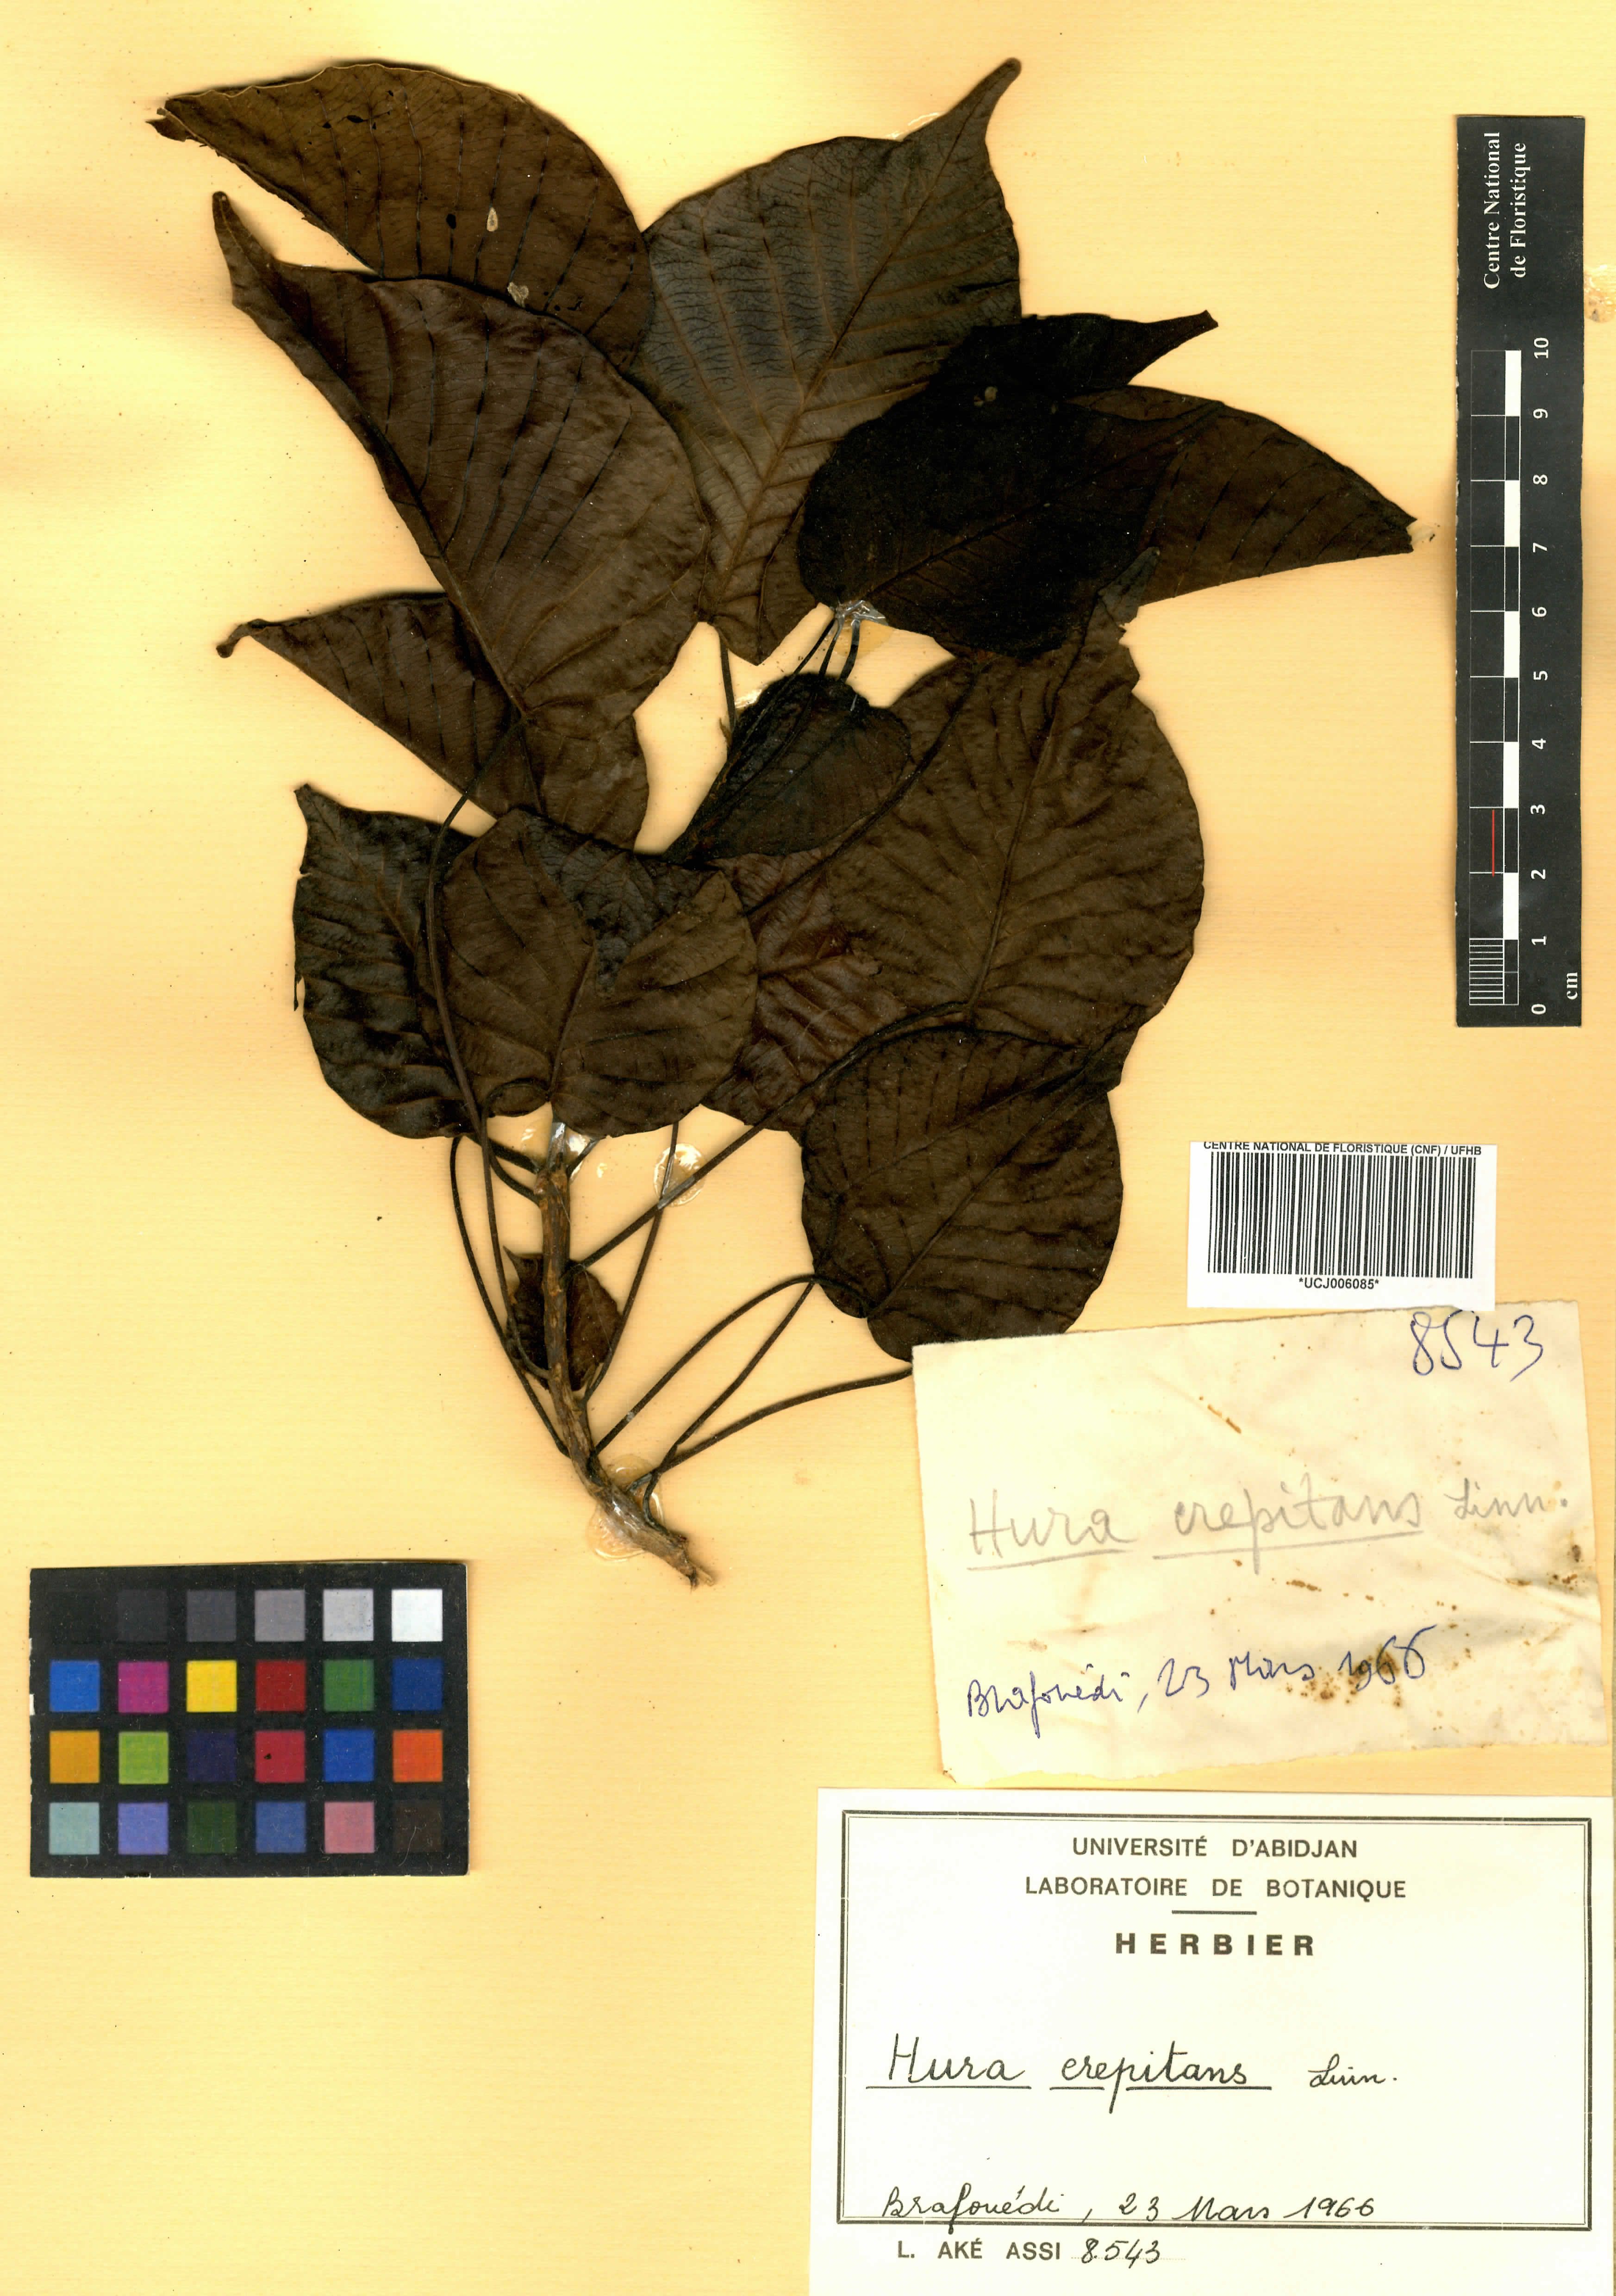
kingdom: Plantae
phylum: Tracheophyta
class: Magnoliopsida
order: Malpighiales
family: Euphorbiaceae
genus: Hura
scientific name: Hura crepitans
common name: Sandboxtree
